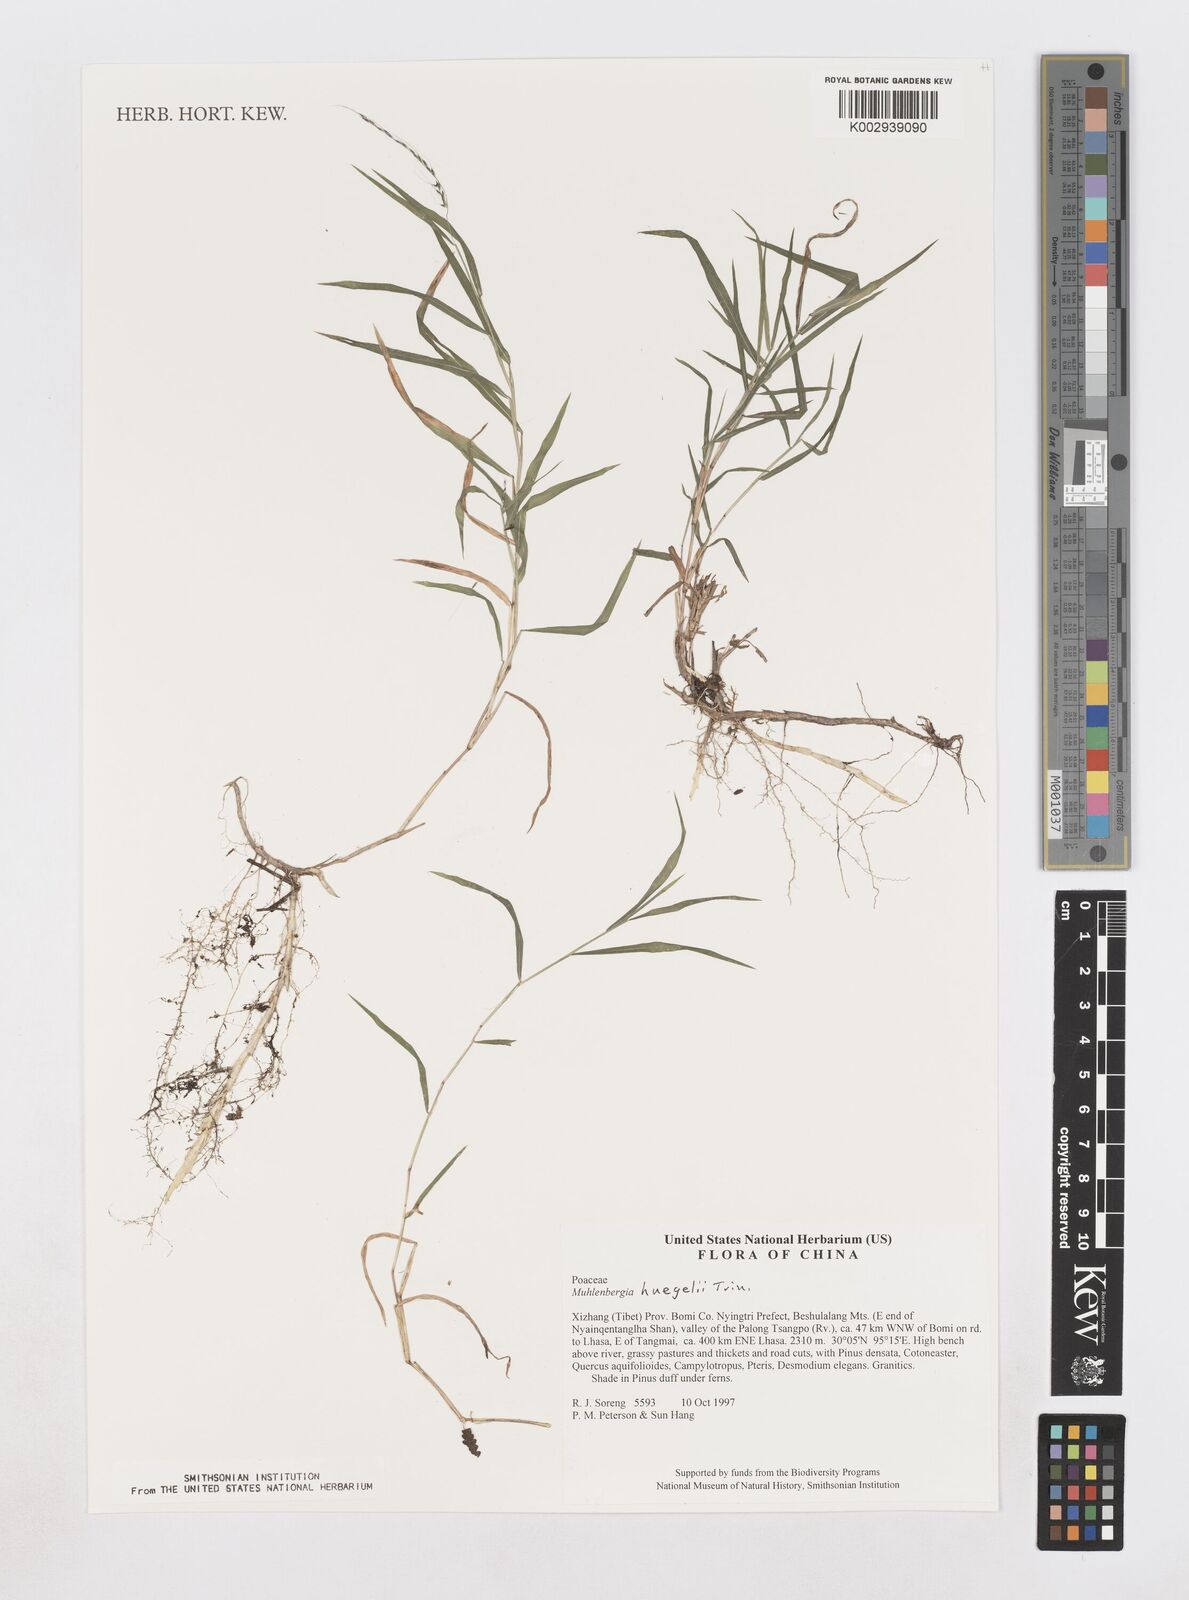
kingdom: Plantae
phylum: Tracheophyta
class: Liliopsida
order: Poales
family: Poaceae
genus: Muhlenbergia
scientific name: Muhlenbergia huegelii
